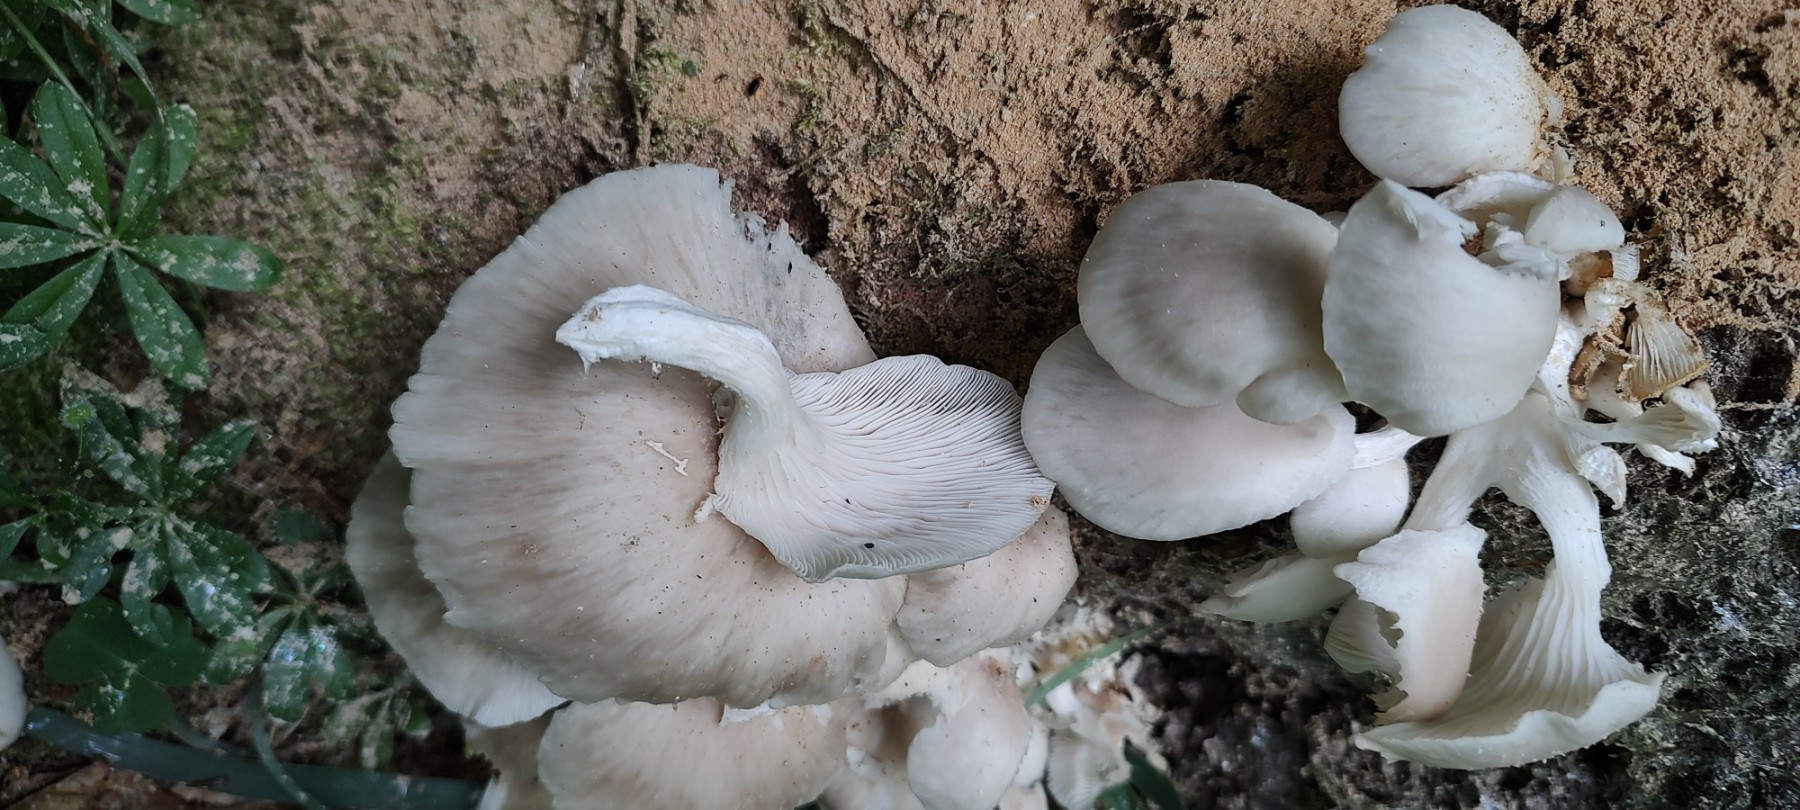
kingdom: Fungi
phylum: Basidiomycota
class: Agaricomycetes
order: Agaricales
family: Pleurotaceae
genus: Pleurotus
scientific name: Pleurotus pulmonarius
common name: sommer-østershat
